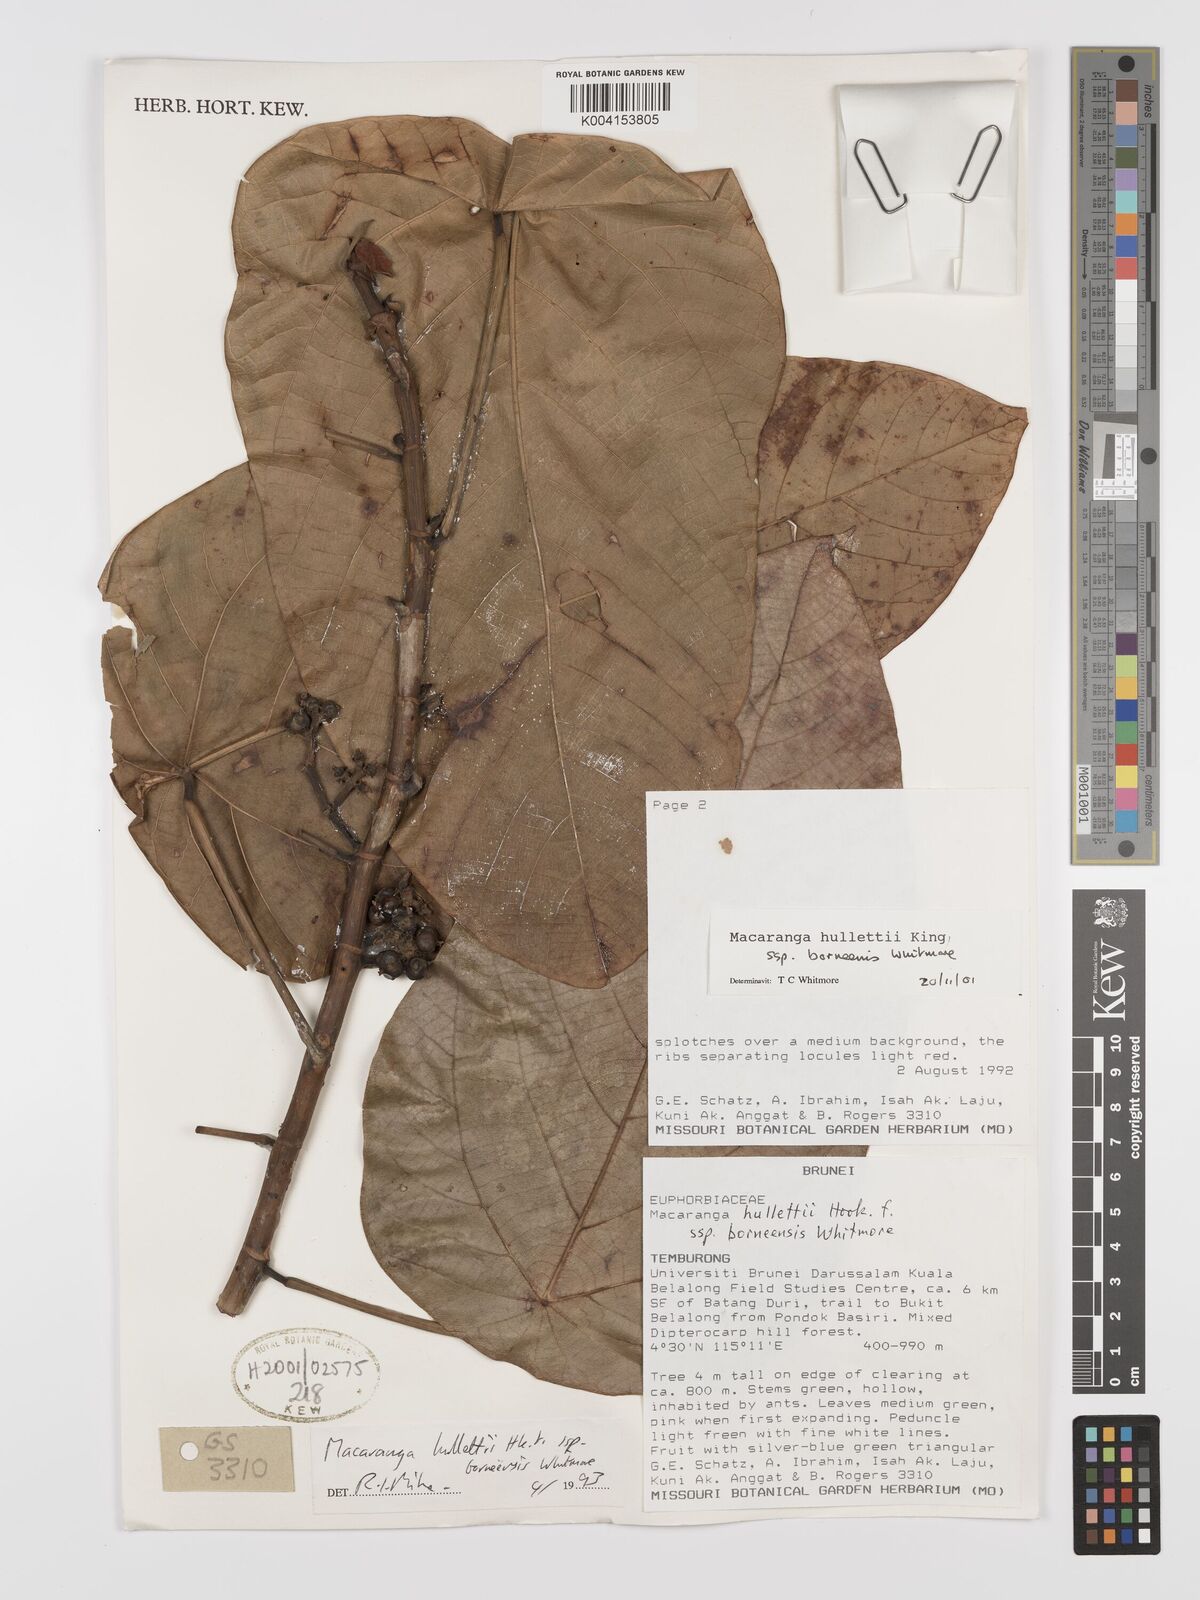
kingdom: Plantae
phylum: Tracheophyta
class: Magnoliopsida
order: Malpighiales
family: Euphorbiaceae
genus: Macaranga
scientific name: Macaranga hullettii
